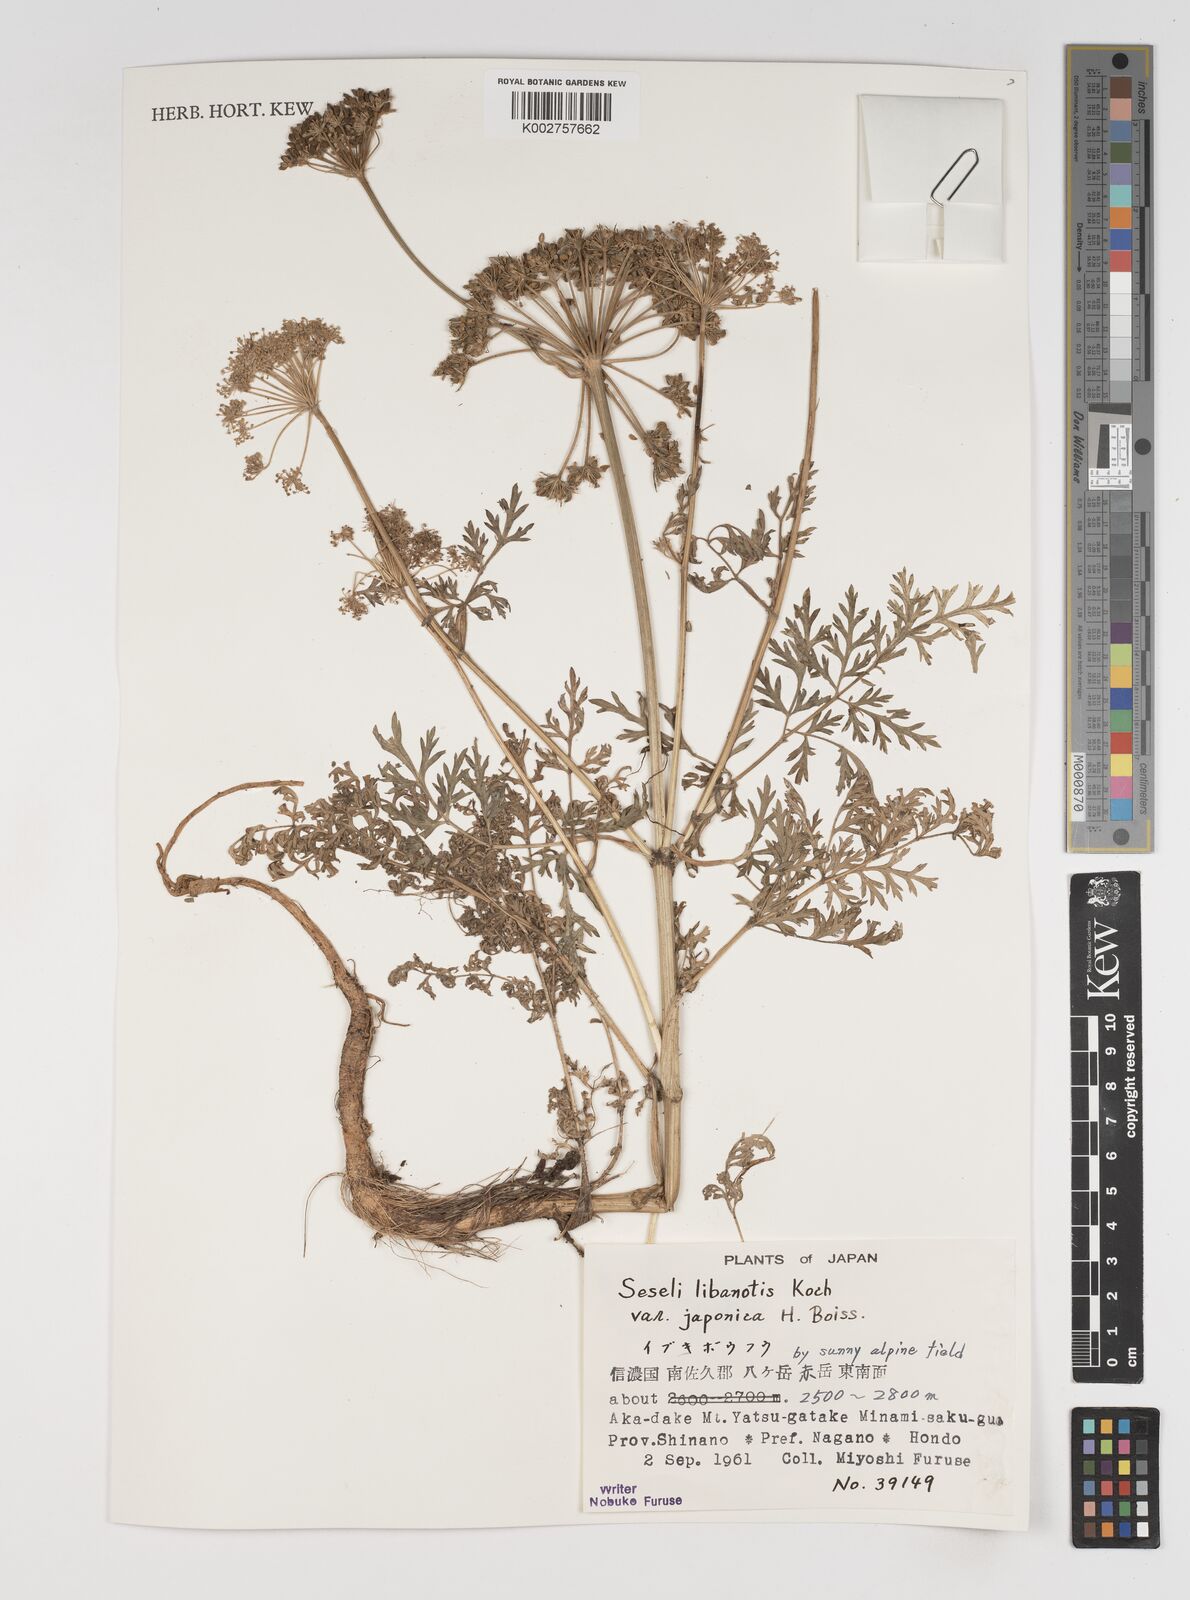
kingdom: Plantae
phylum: Tracheophyta
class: Magnoliopsida
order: Apiales
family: Apiaceae
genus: Seseli
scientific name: Seseli libanotis
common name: Mooncarrot
